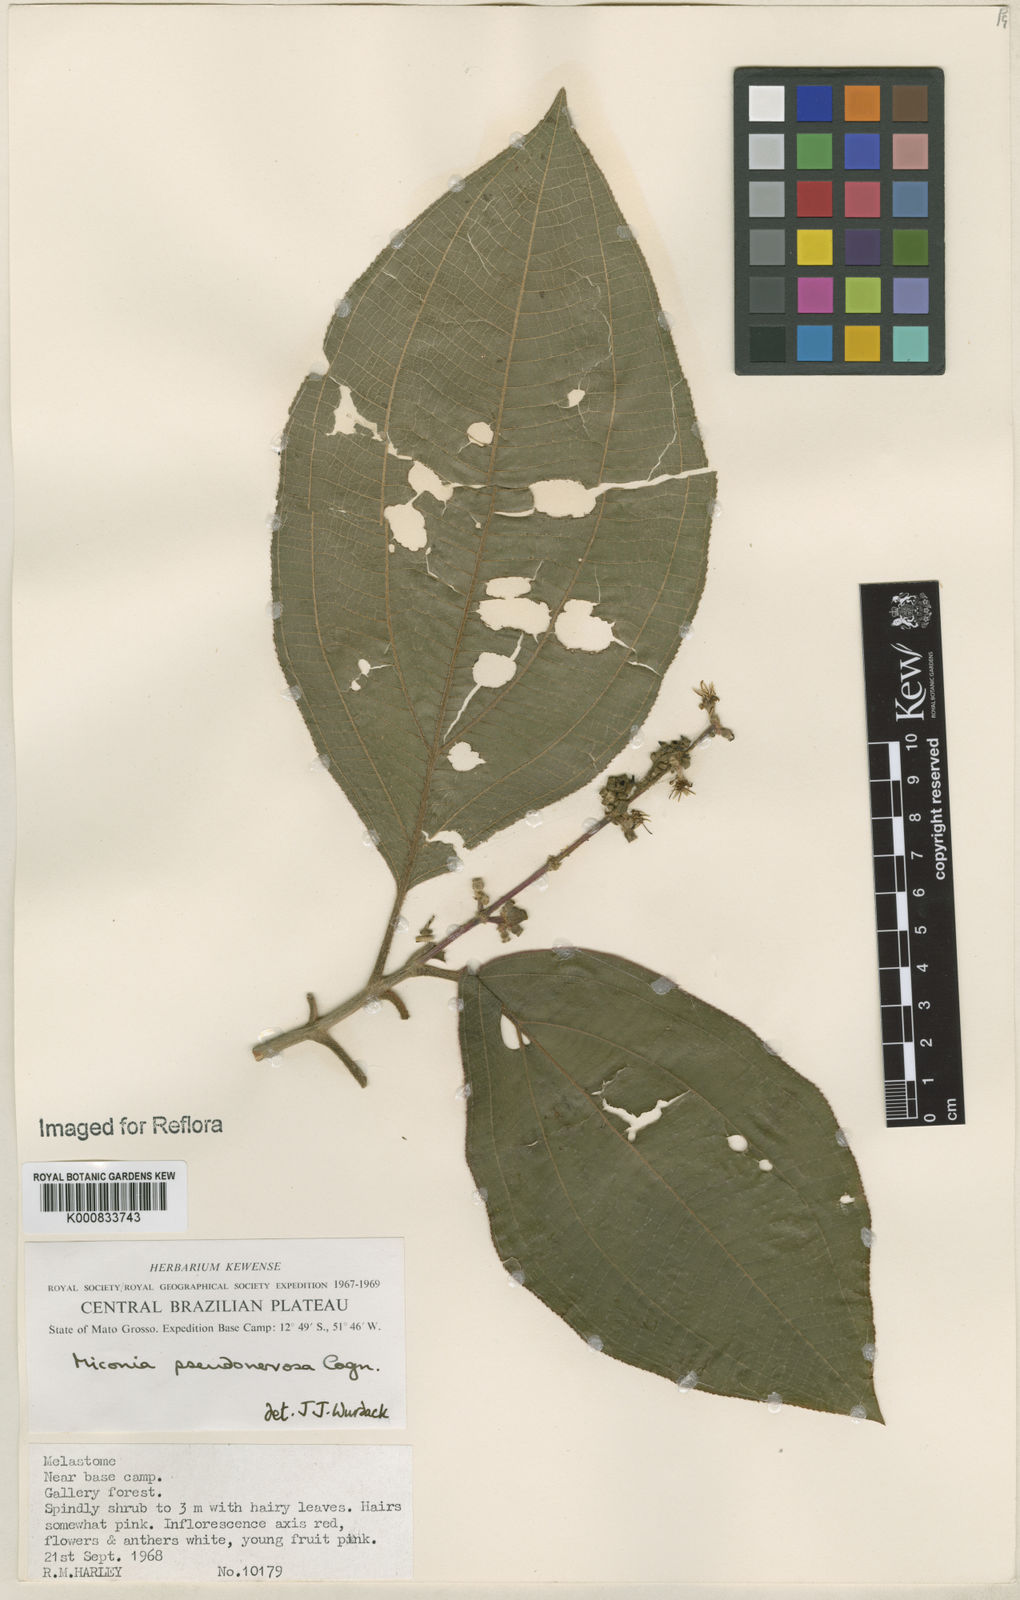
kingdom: Plantae
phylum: Tracheophyta
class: Magnoliopsida
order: Myrtales
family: Melastomataceae
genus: Miconia
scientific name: Miconia pseudonervosa
